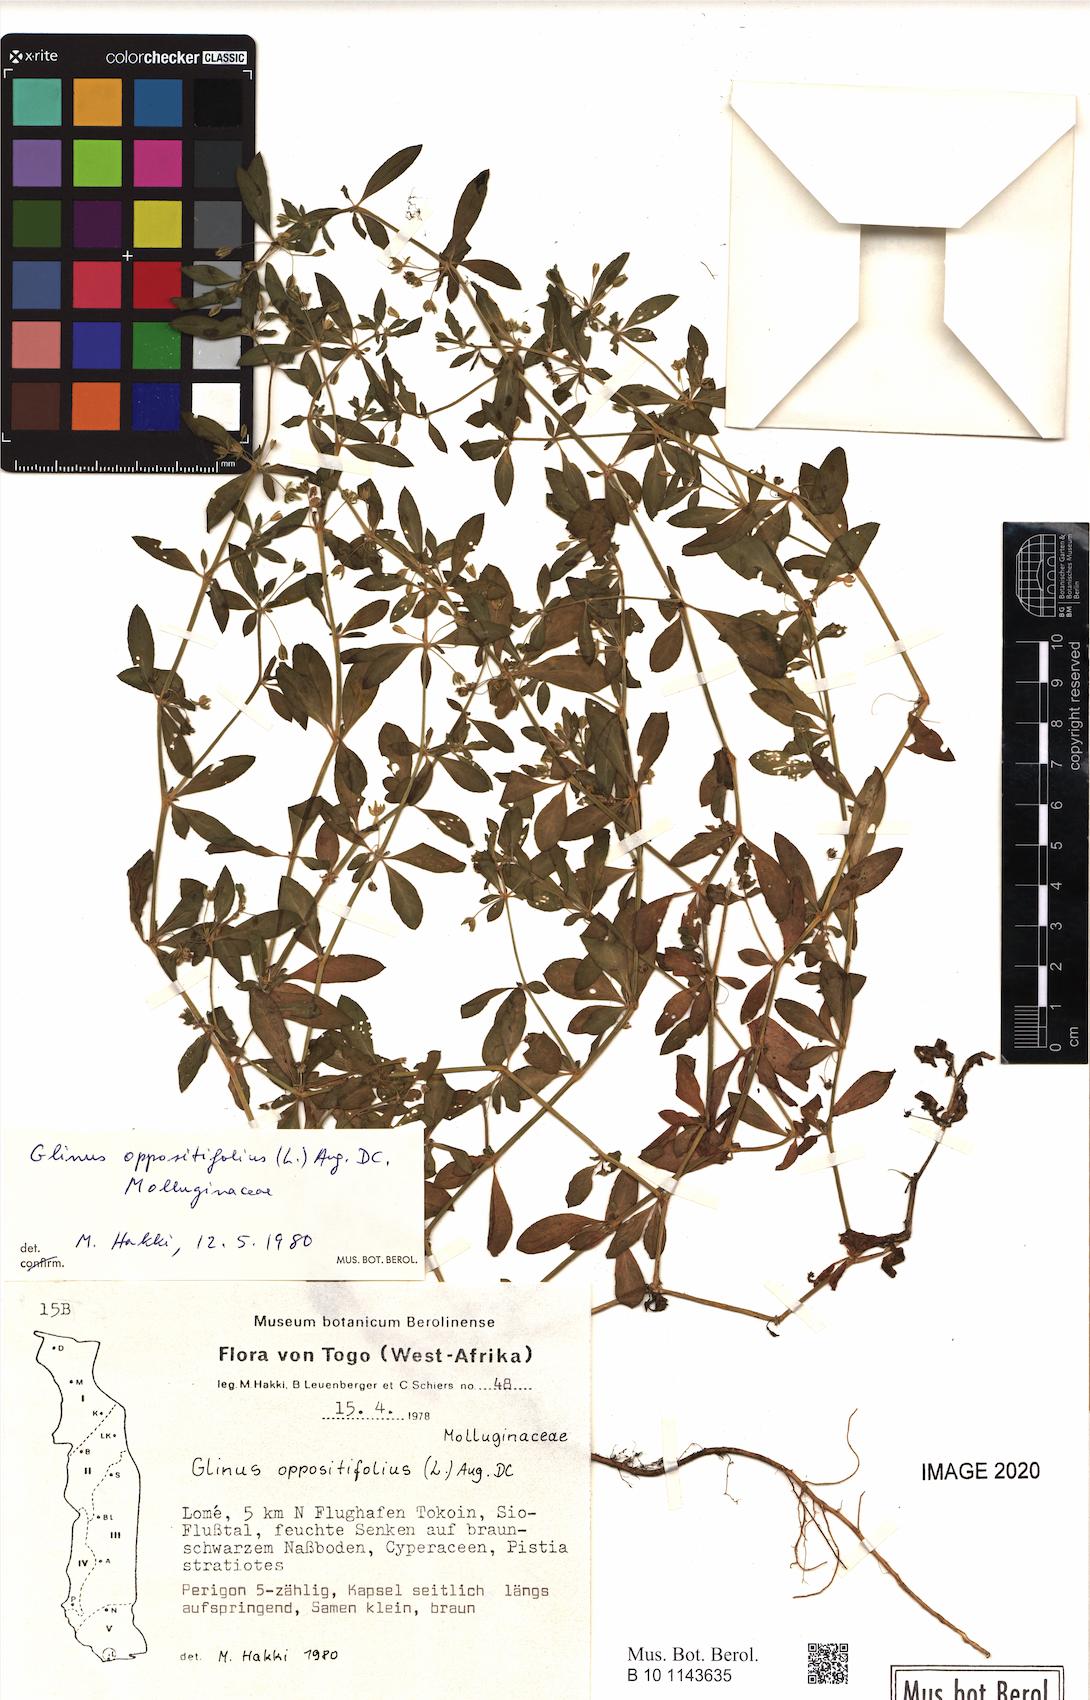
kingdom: Plantae
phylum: Tracheophyta
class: Magnoliopsida
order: Caryophyllales
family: Molluginaceae
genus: Glinus
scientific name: Glinus oppositifolius
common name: Slender carpetweed
